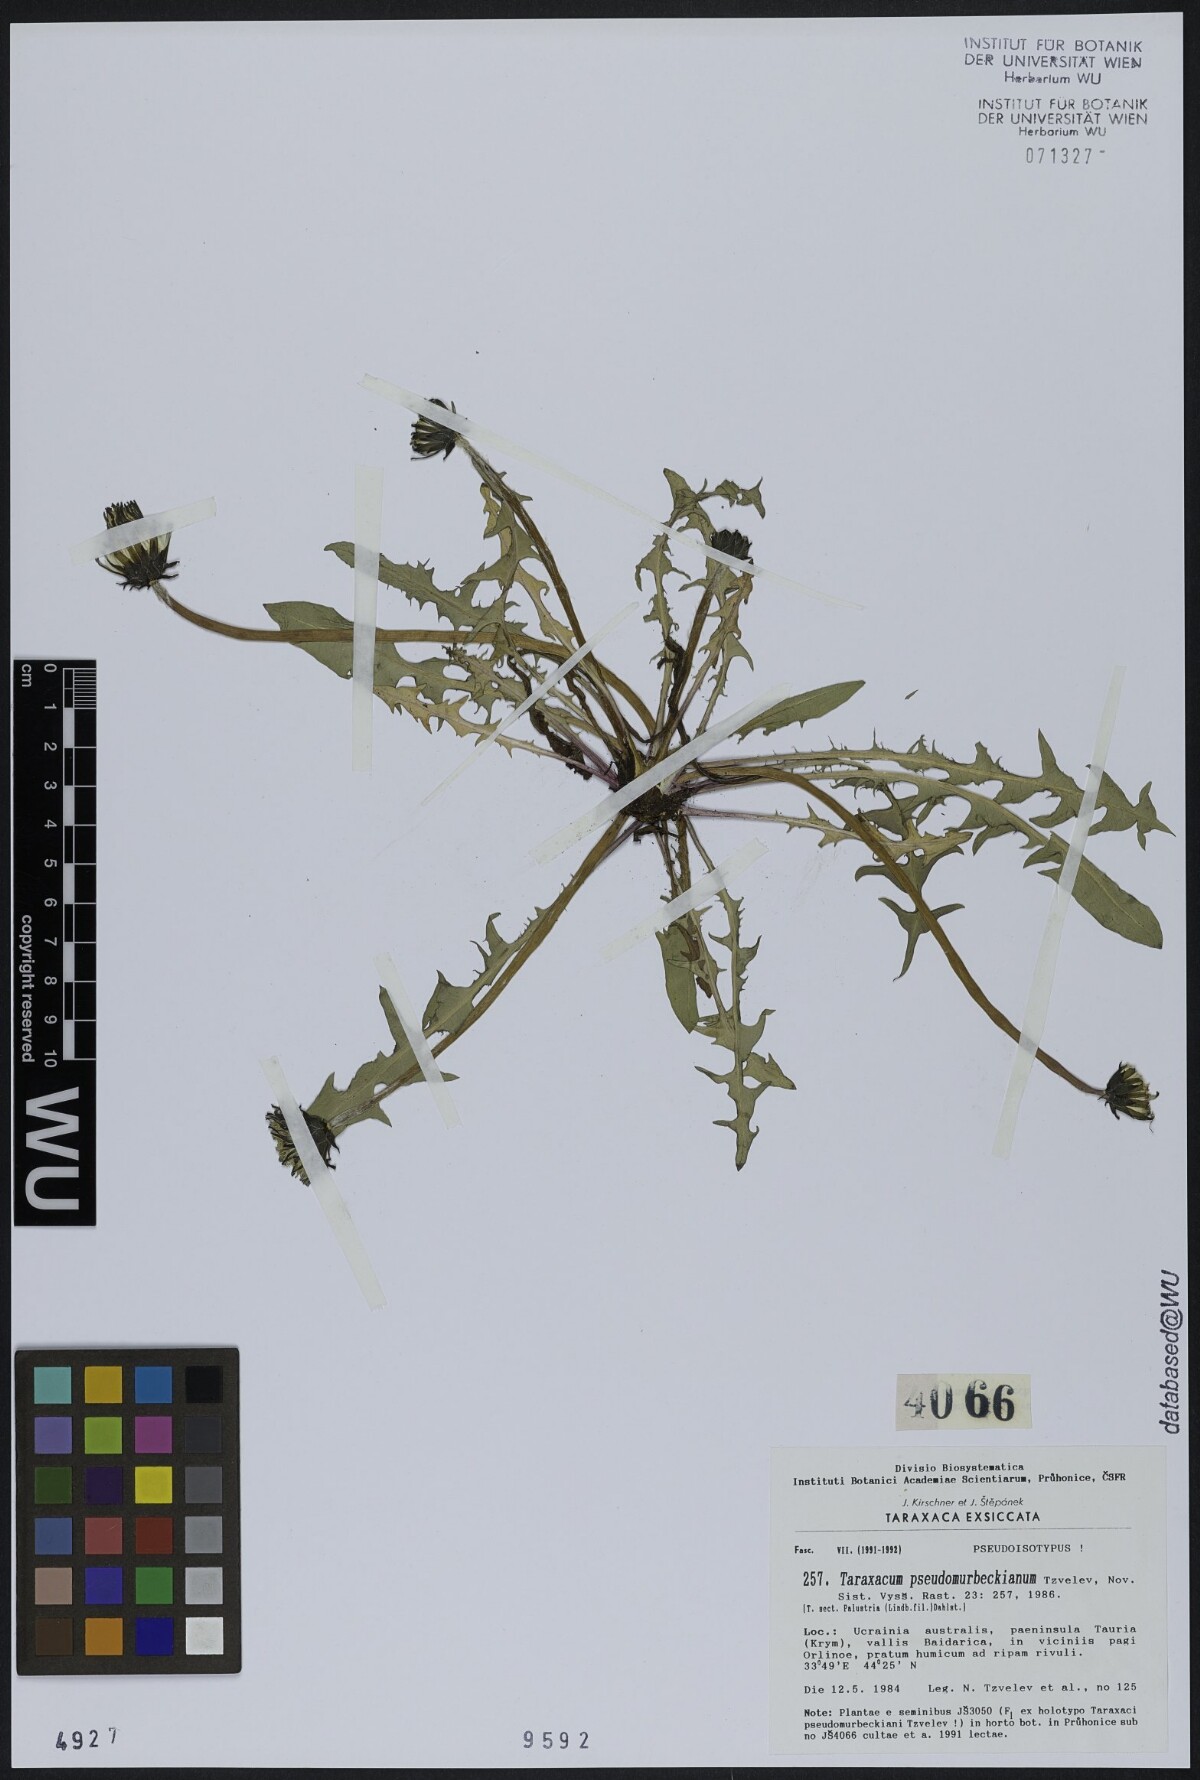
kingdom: Plantae
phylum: Tracheophyta
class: Magnoliopsida
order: Asterales
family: Asteraceae
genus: Taraxacum
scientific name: Taraxacum pseudomurbeckianum
